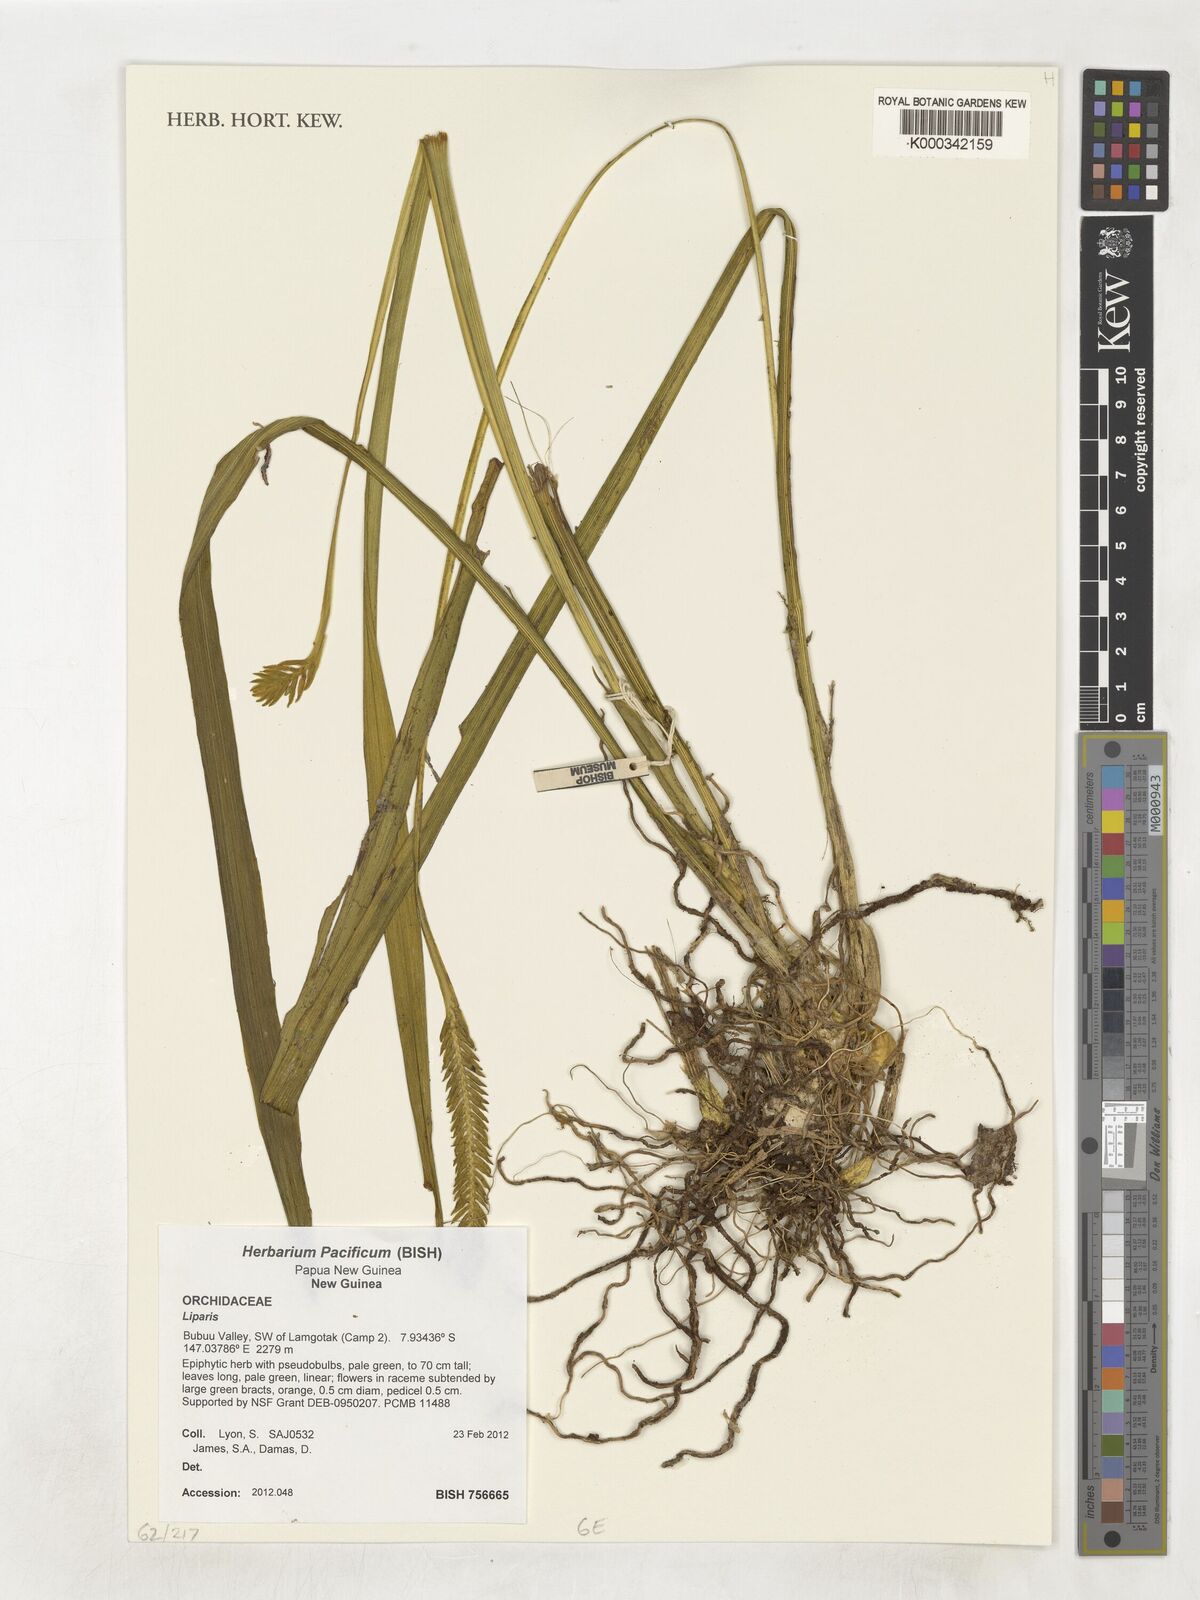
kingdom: Plantae
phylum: Tracheophyta
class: Liliopsida
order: Asparagales
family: Orchidaceae
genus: Liparis
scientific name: Liparis
